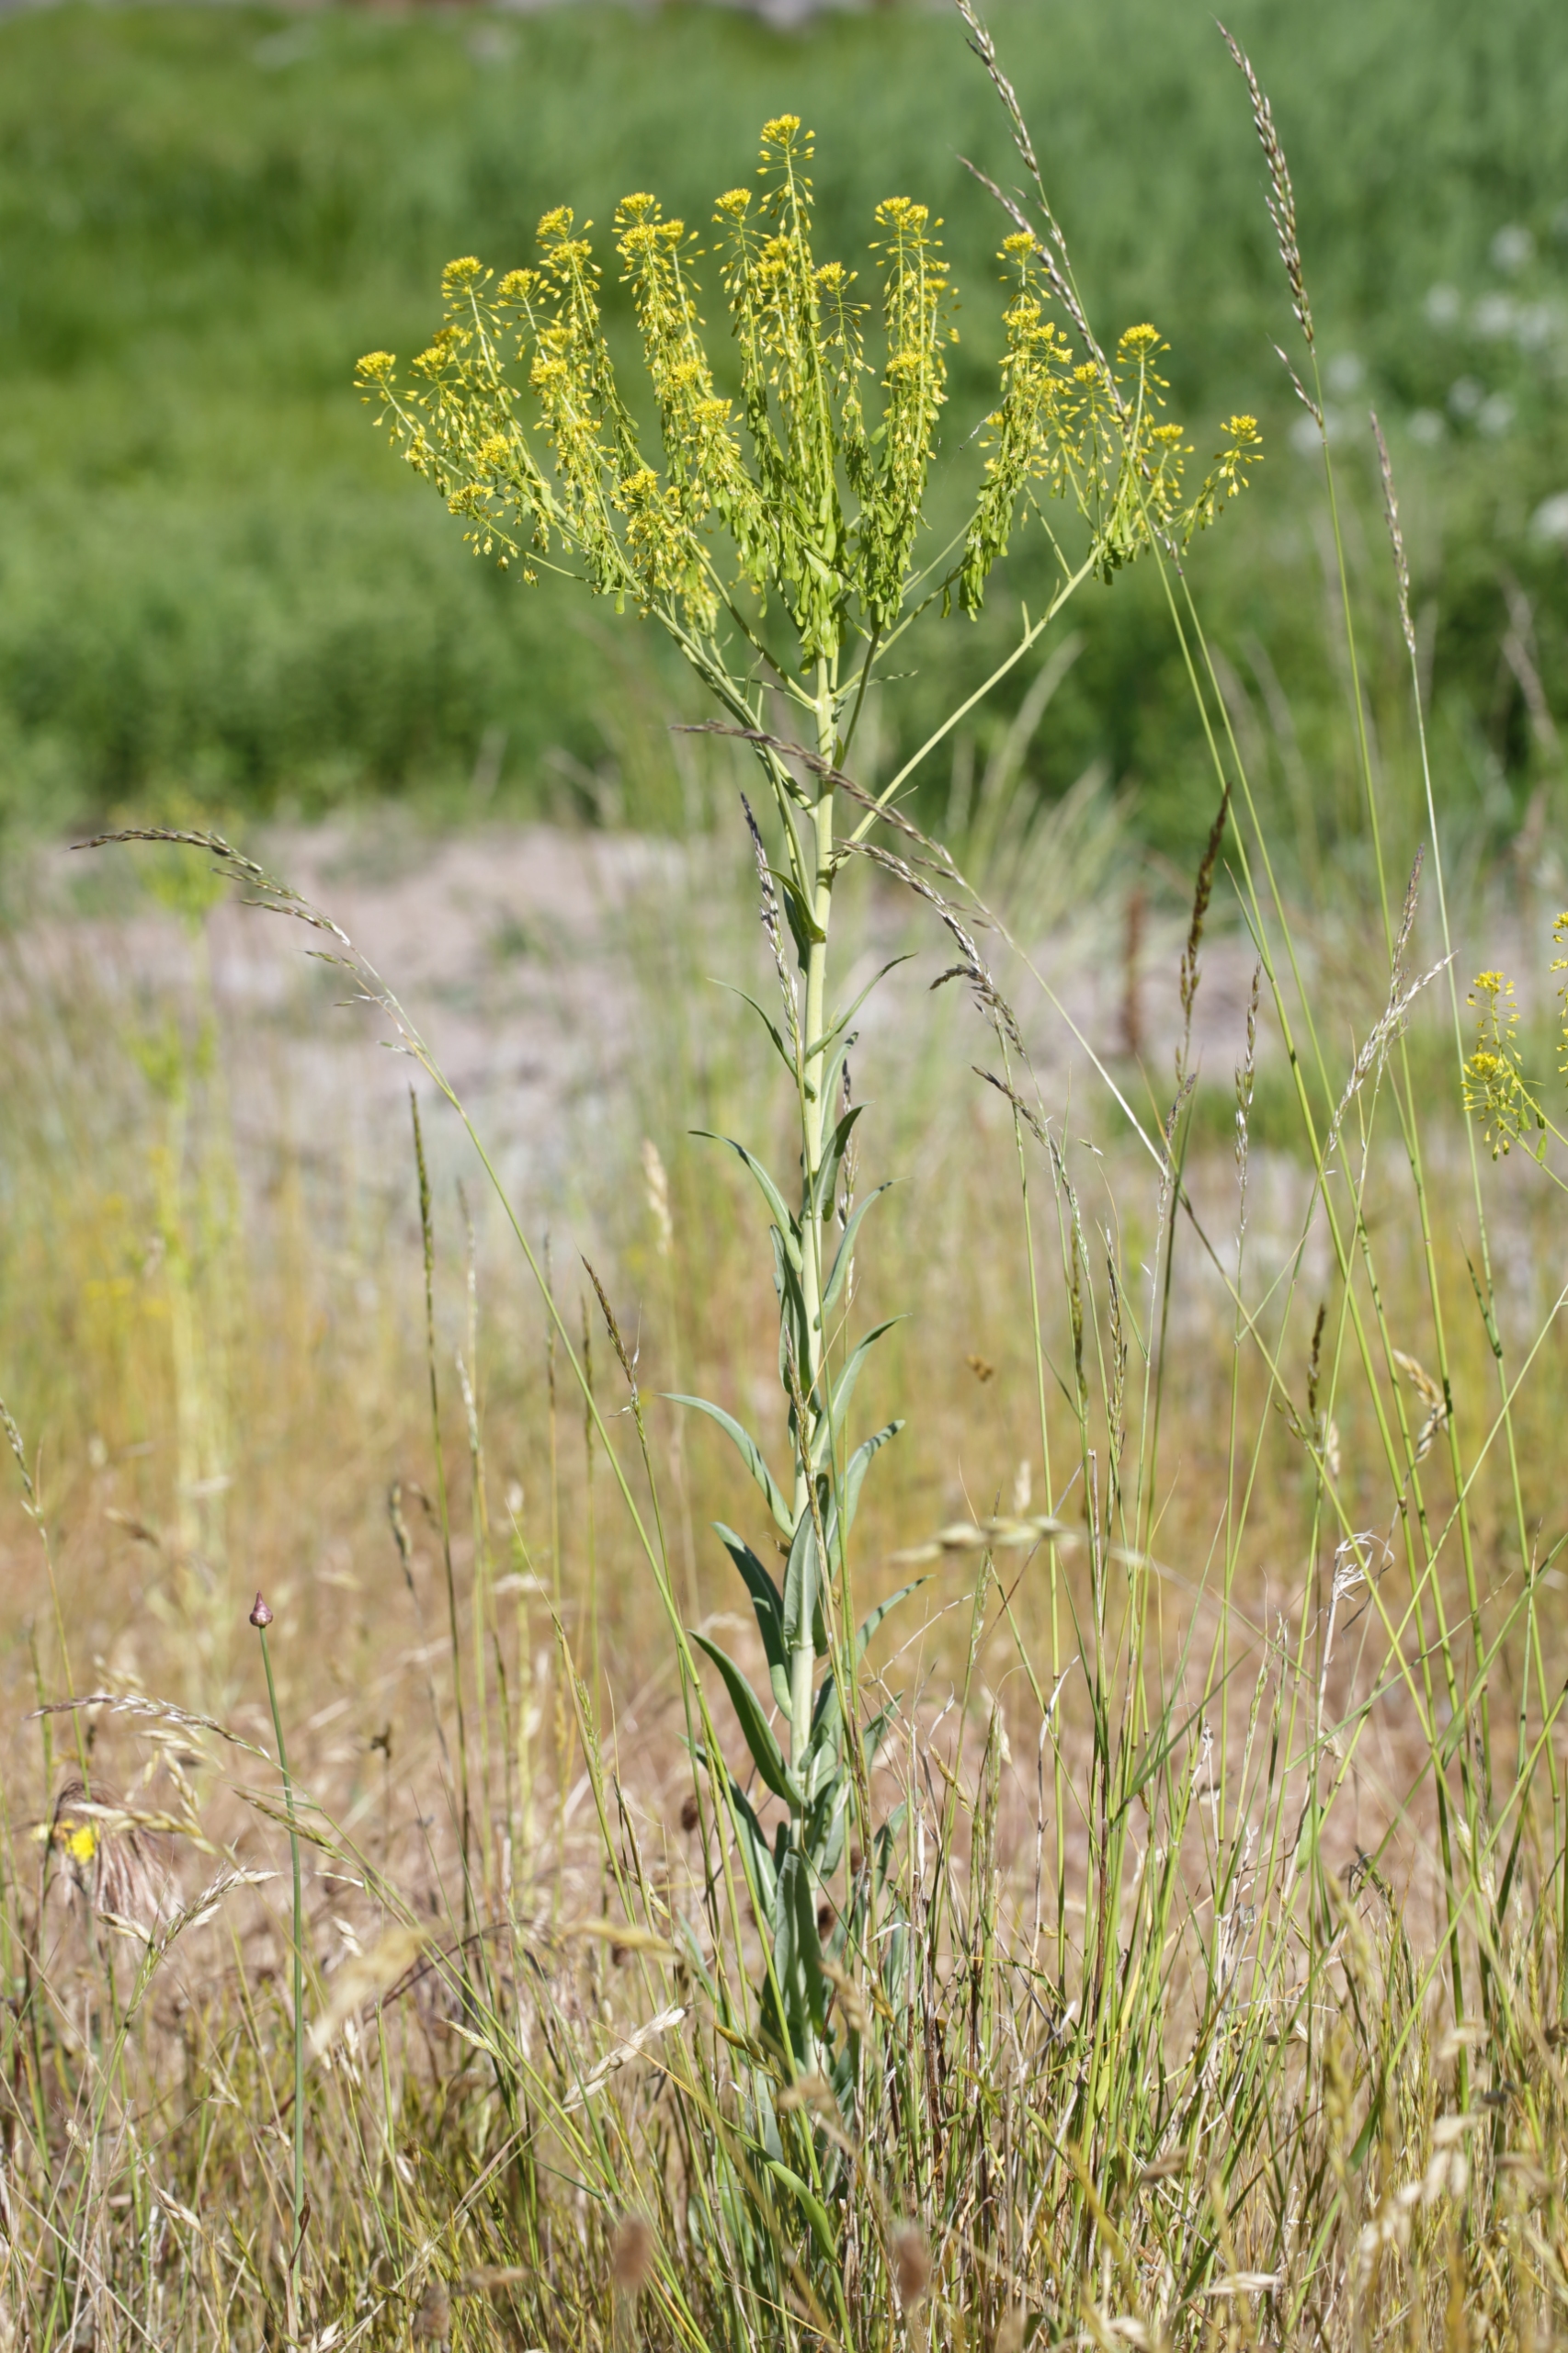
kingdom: Plantae
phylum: Tracheophyta
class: Magnoliopsida
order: Brassicales
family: Brassicaceae
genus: Isatis
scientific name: Isatis tinctoria
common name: Farve-vajd
